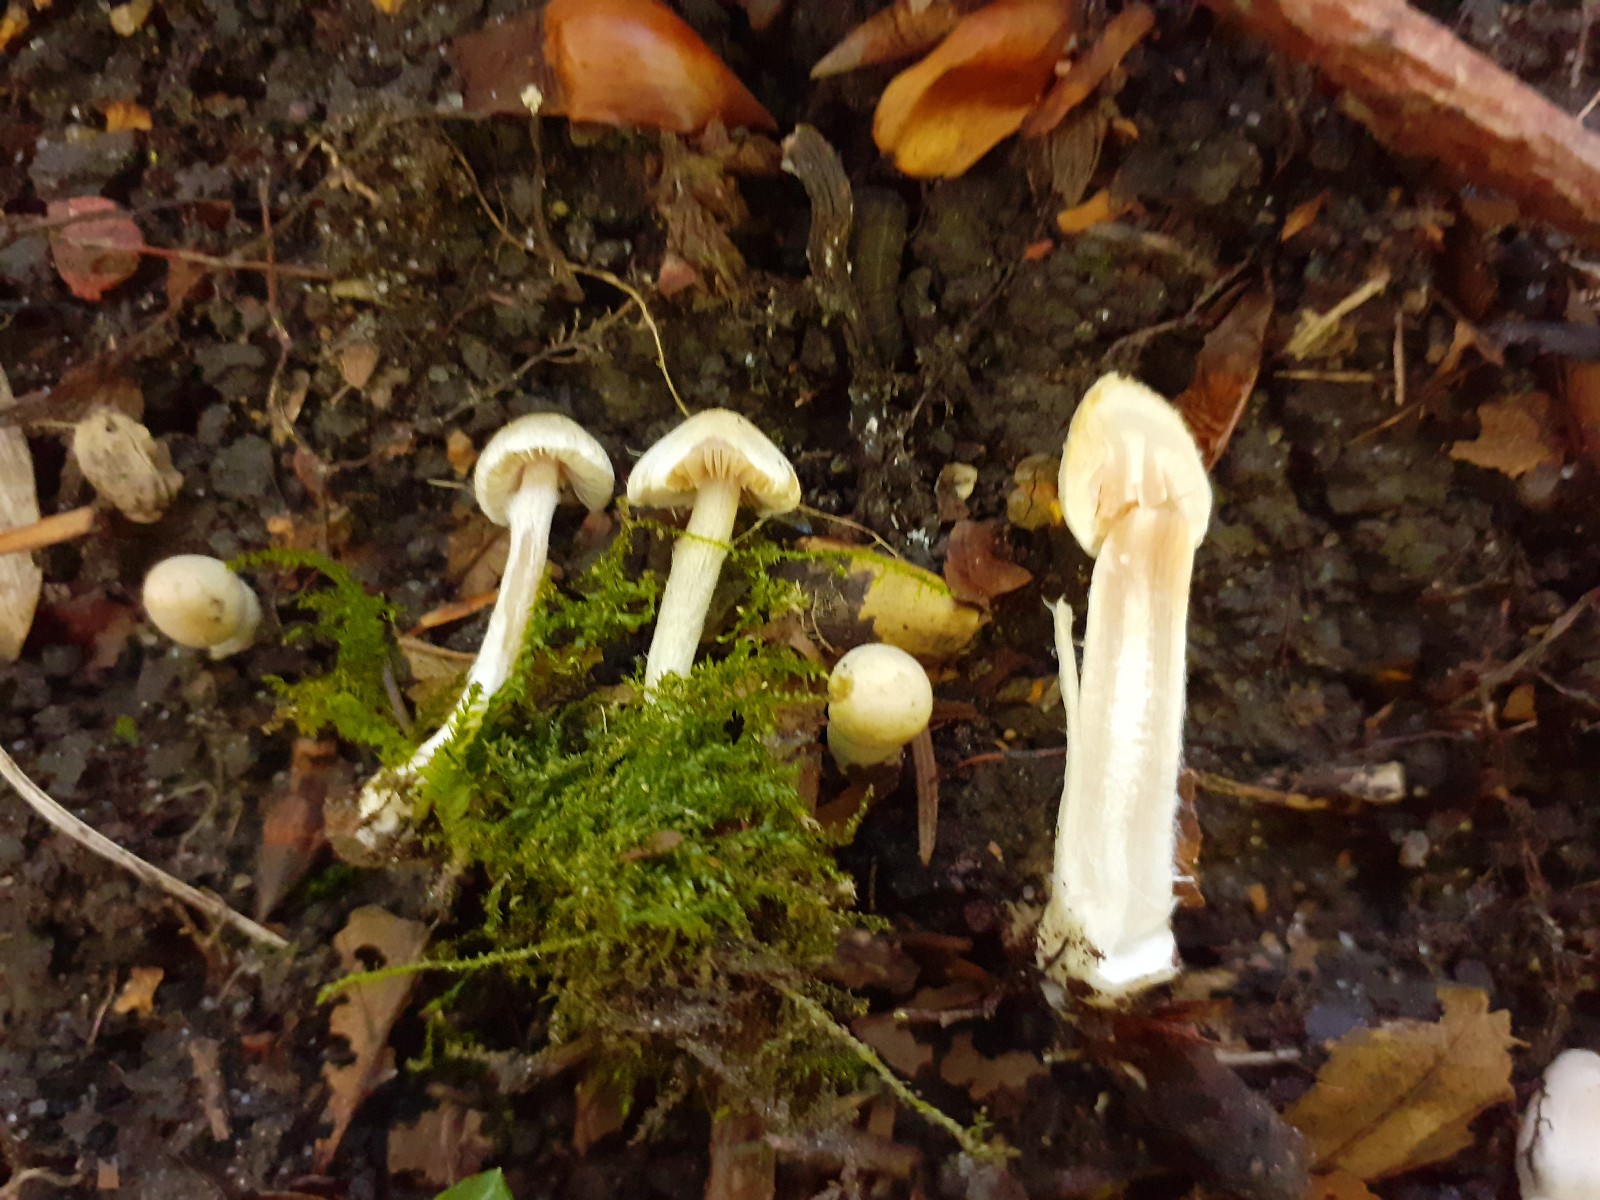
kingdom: Fungi
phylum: Basidiomycota
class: Agaricomycetes
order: Agaricales
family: Inocybaceae
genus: Inocybe
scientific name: Inocybe huijsmanii
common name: rosazonet trævlhat
